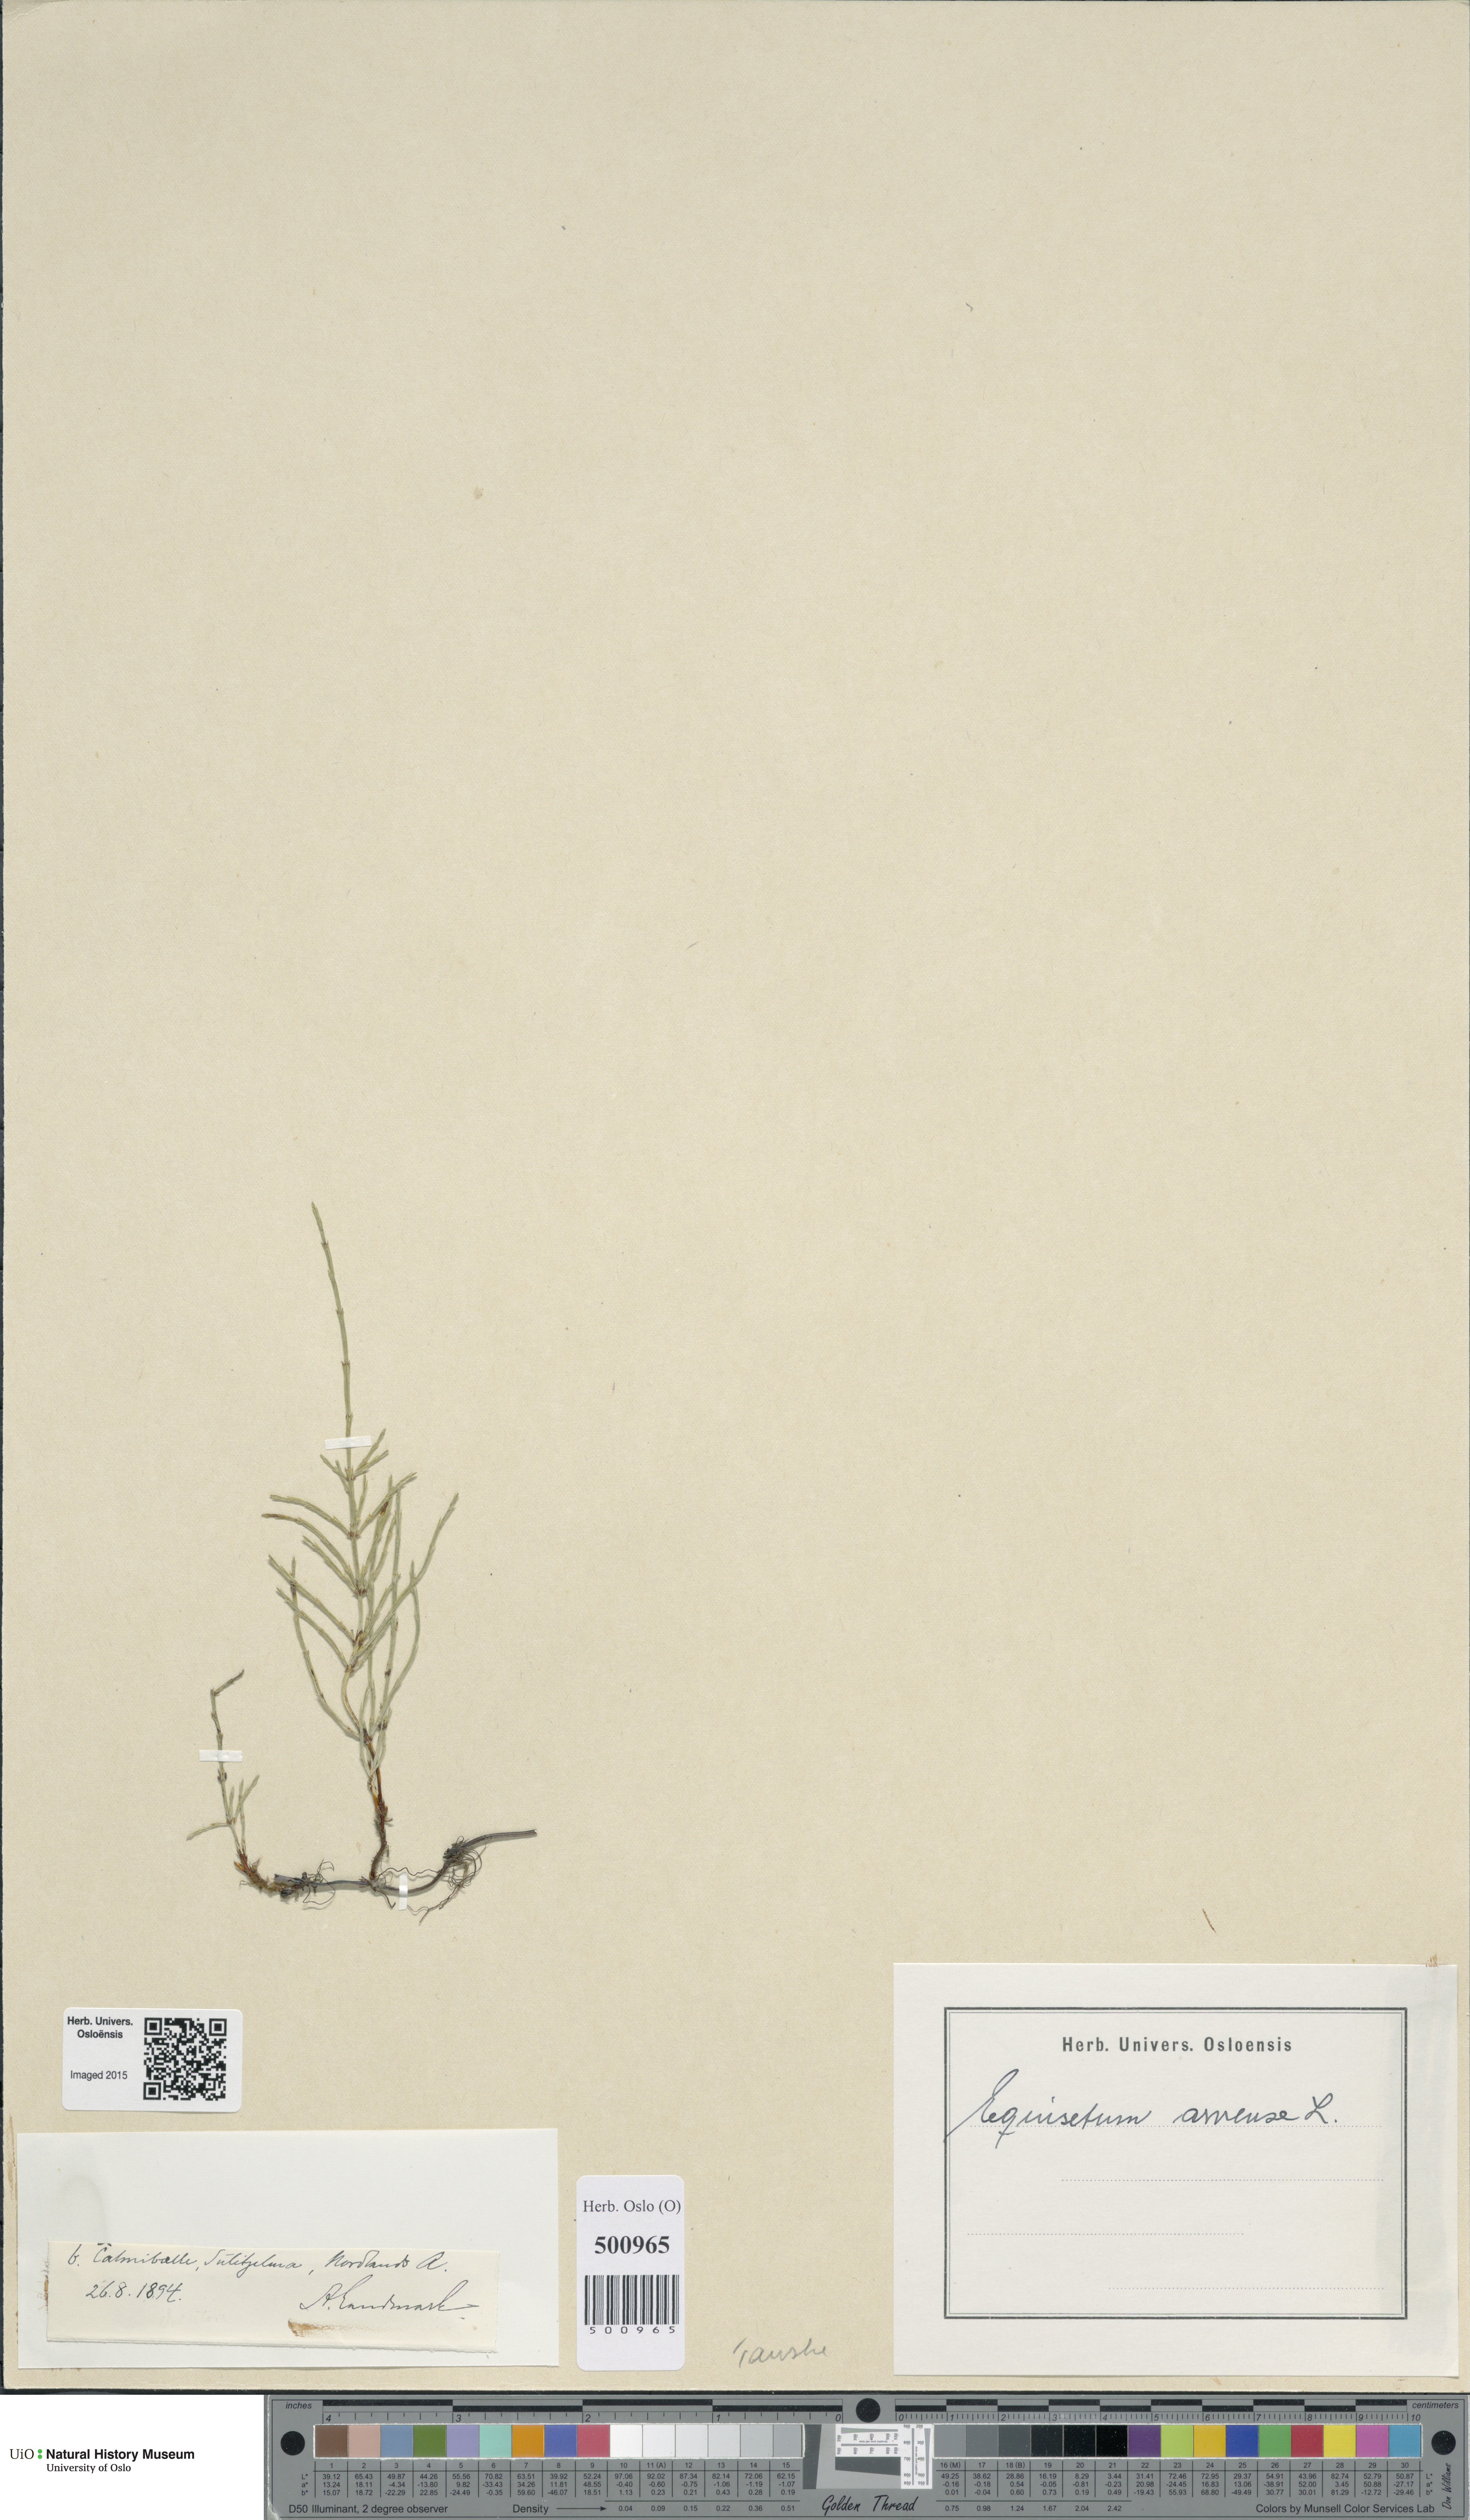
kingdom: Plantae
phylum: Tracheophyta
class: Polypodiopsida
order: Equisetales
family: Equisetaceae
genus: Equisetum
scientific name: Equisetum arvense
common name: Field horsetail
